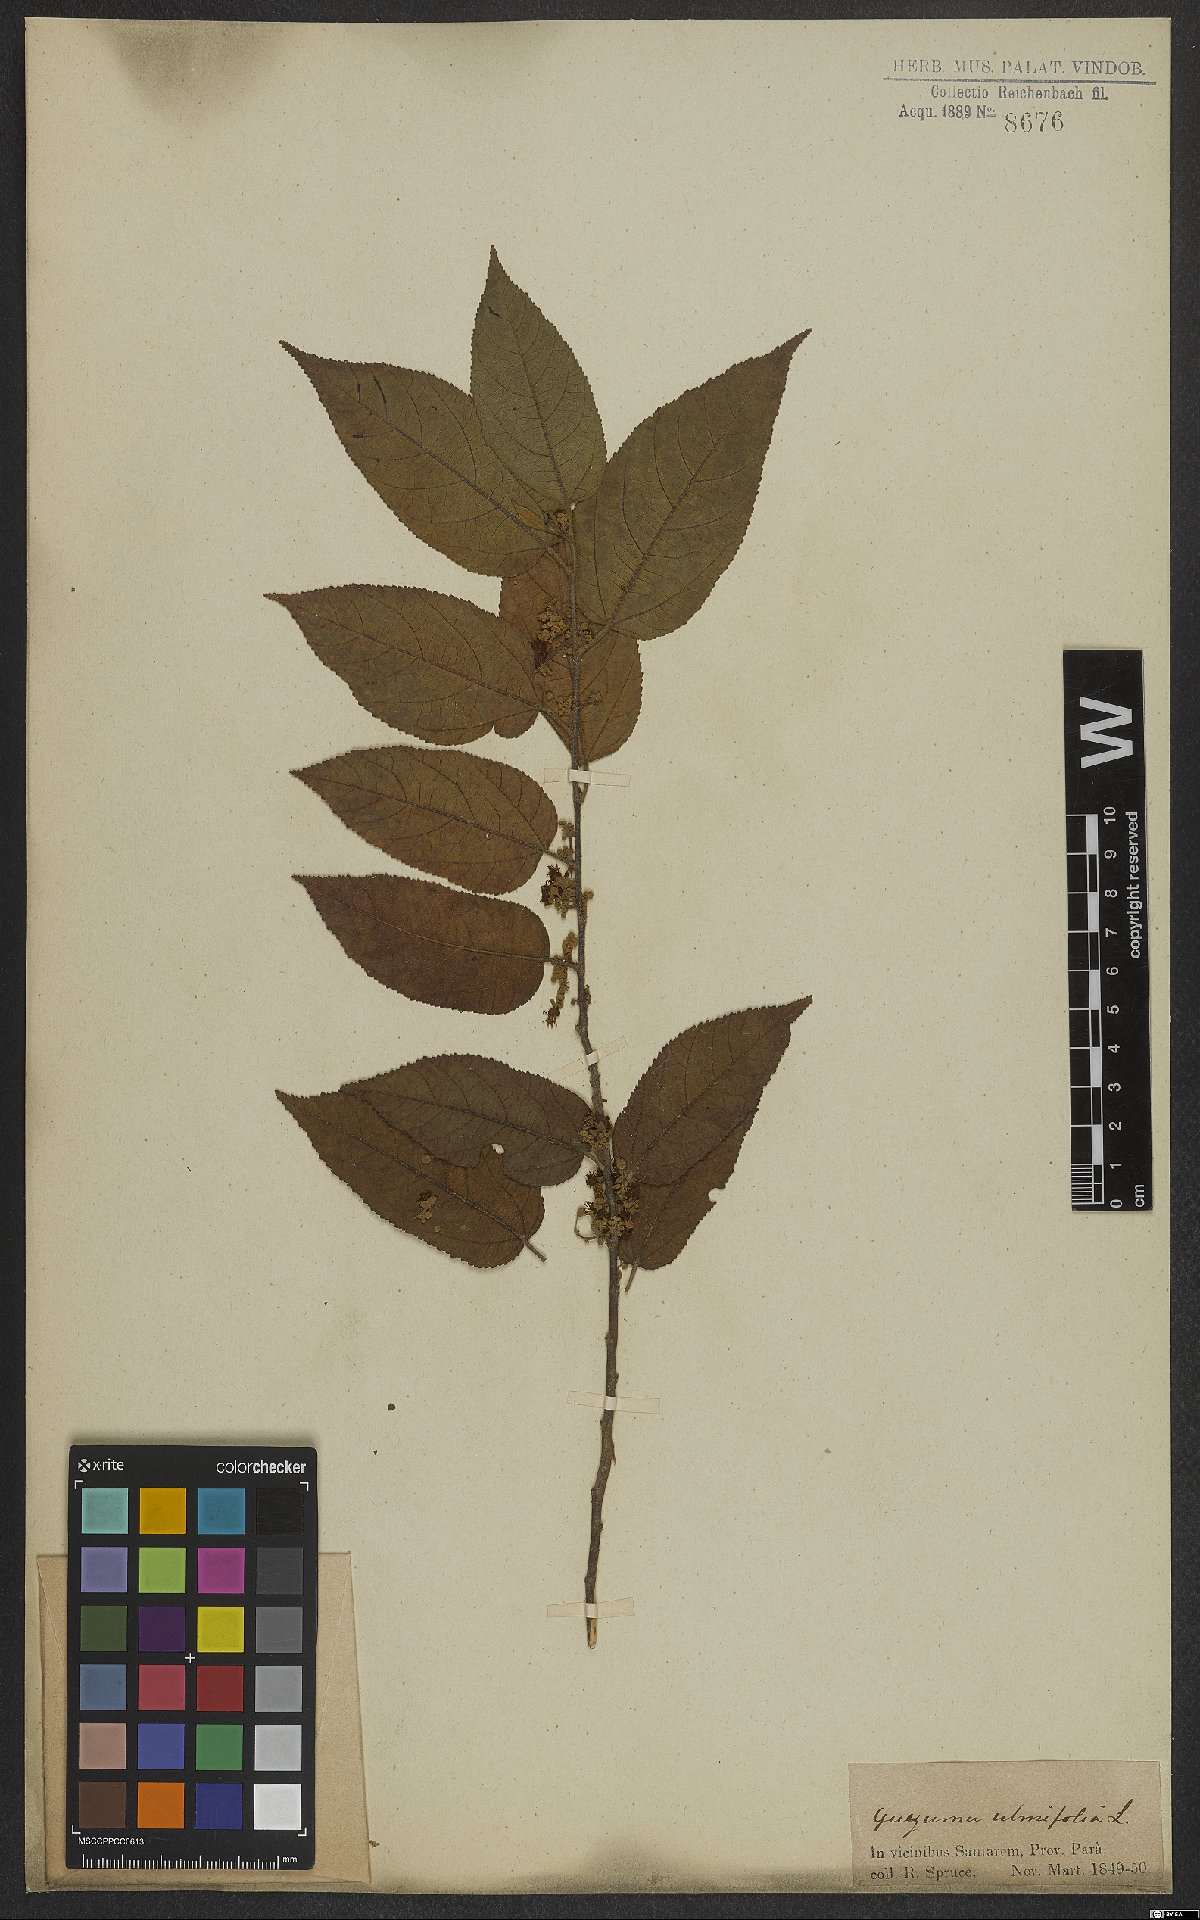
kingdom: Plantae
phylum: Tracheophyta
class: Magnoliopsida
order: Malvales
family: Malvaceae
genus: Guazuma
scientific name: Guazuma ulmifolia
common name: Bastard-cedar
